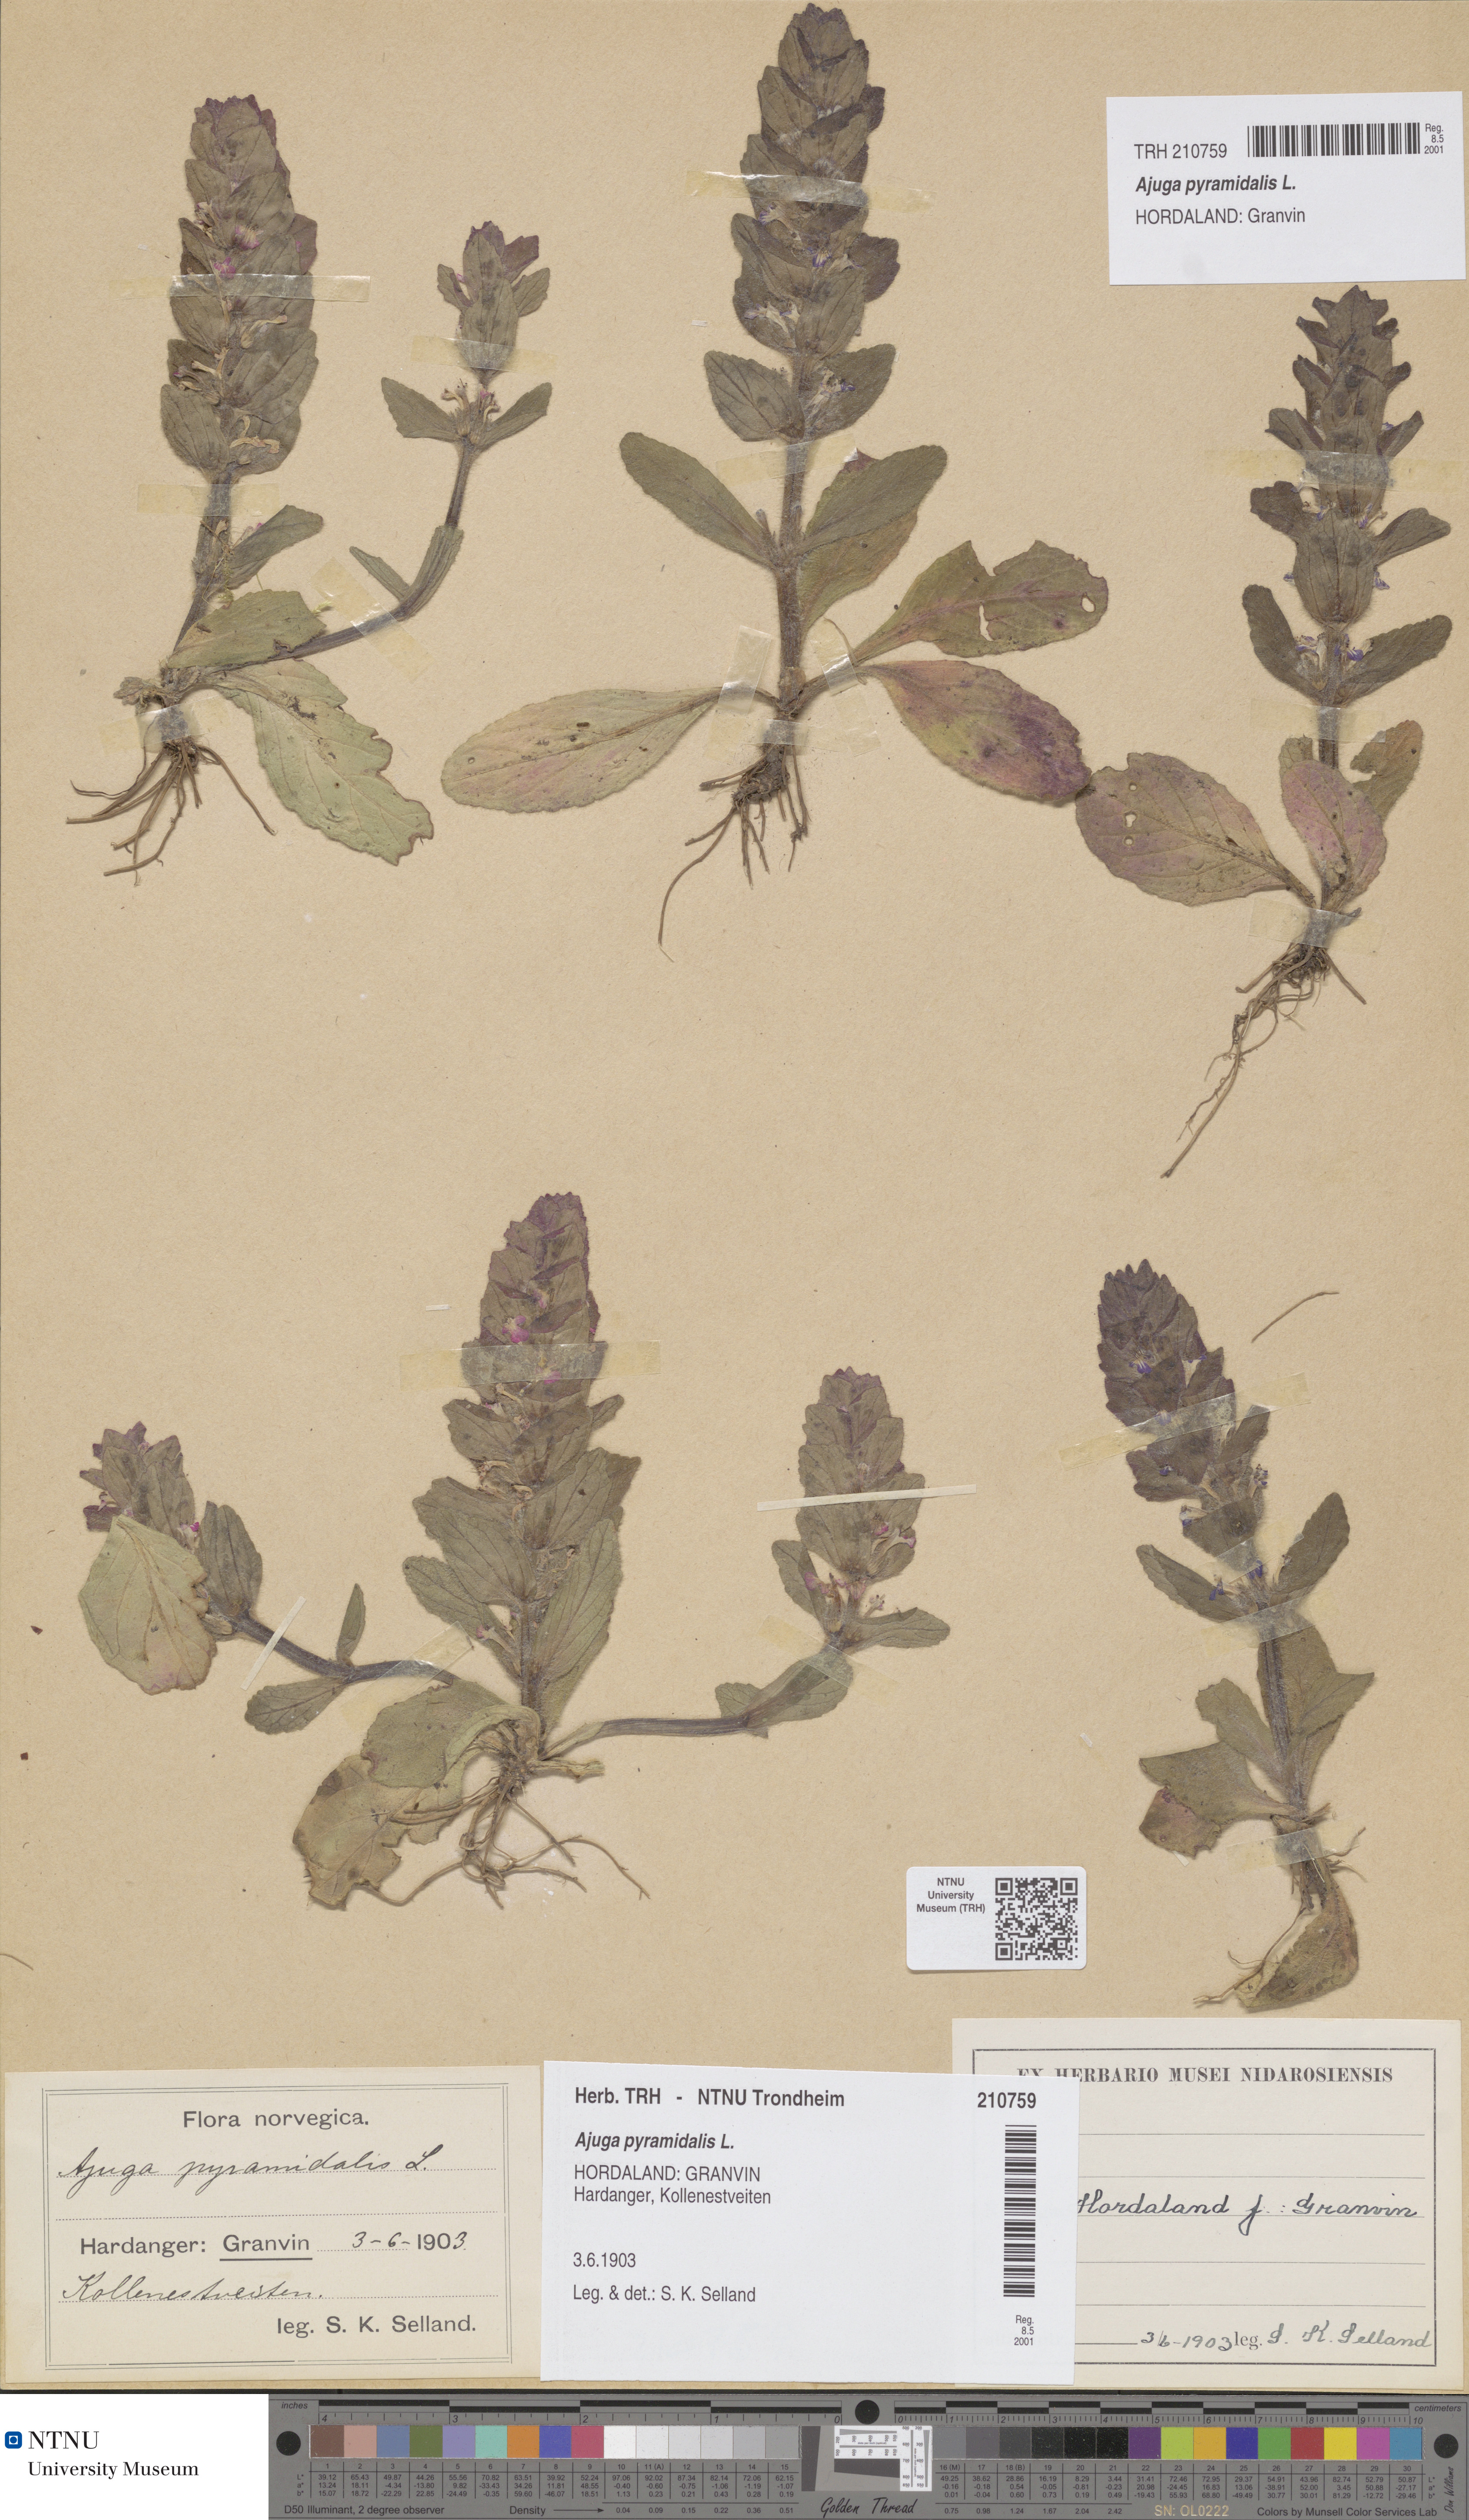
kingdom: Plantae
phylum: Tracheophyta
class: Magnoliopsida
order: Lamiales
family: Lamiaceae
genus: Ajuga
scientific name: Ajuga pyramidalis
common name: Pyramid bugle
